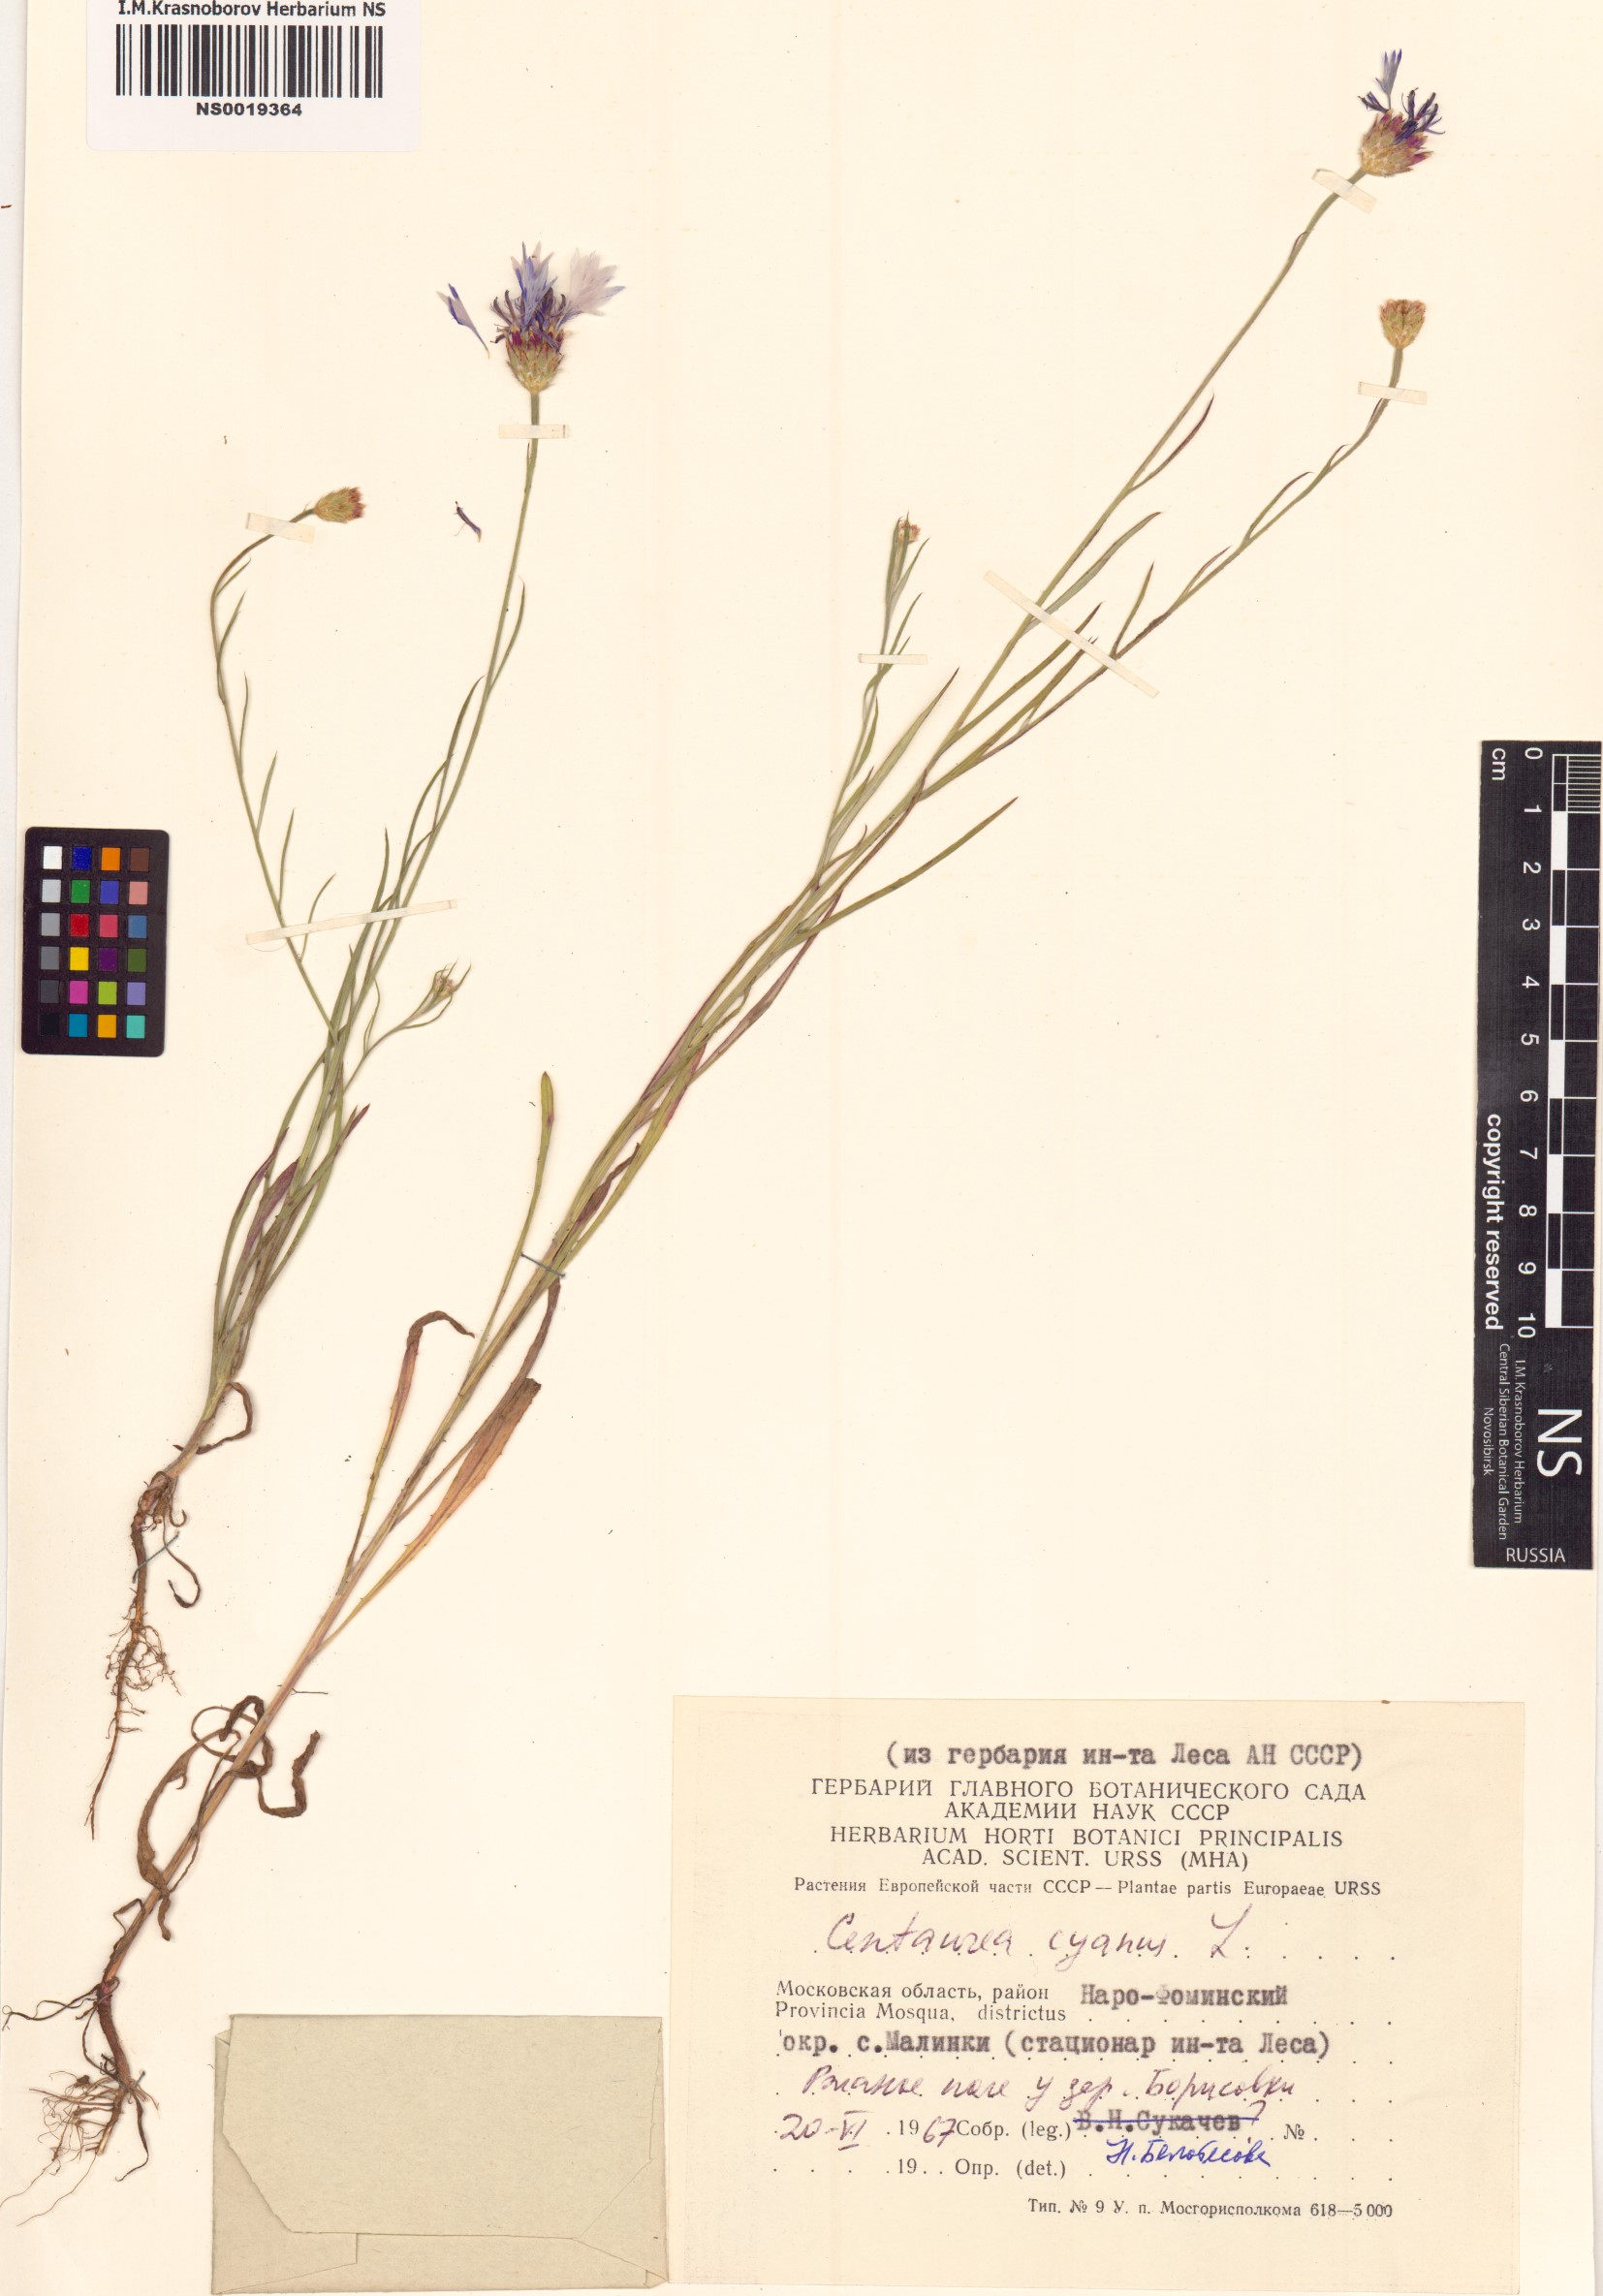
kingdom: Plantae
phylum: Tracheophyta
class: Magnoliopsida
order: Asterales
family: Asteraceae
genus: Centaurea
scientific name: Centaurea cyanus
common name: Cornflower
